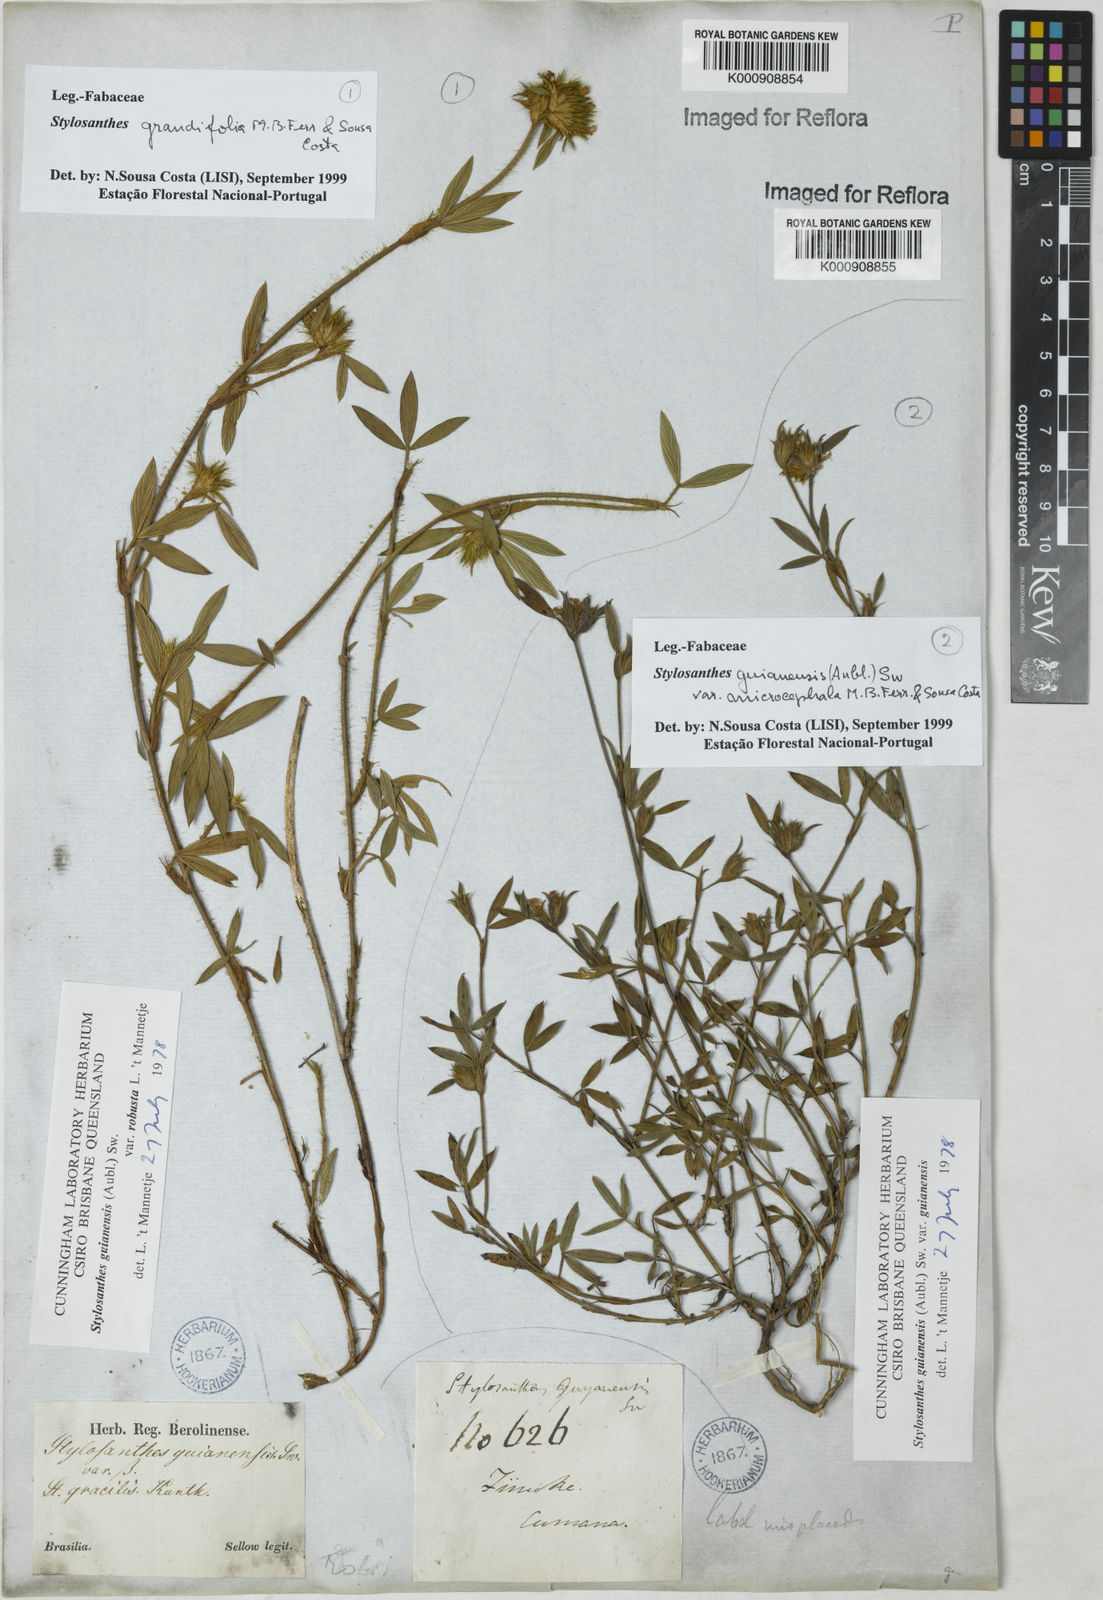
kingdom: Plantae
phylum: Tracheophyta
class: Magnoliopsida
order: Fabales
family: Fabaceae
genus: Stylosanthes
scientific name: Stylosanthes guianensis
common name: Pencil flower
